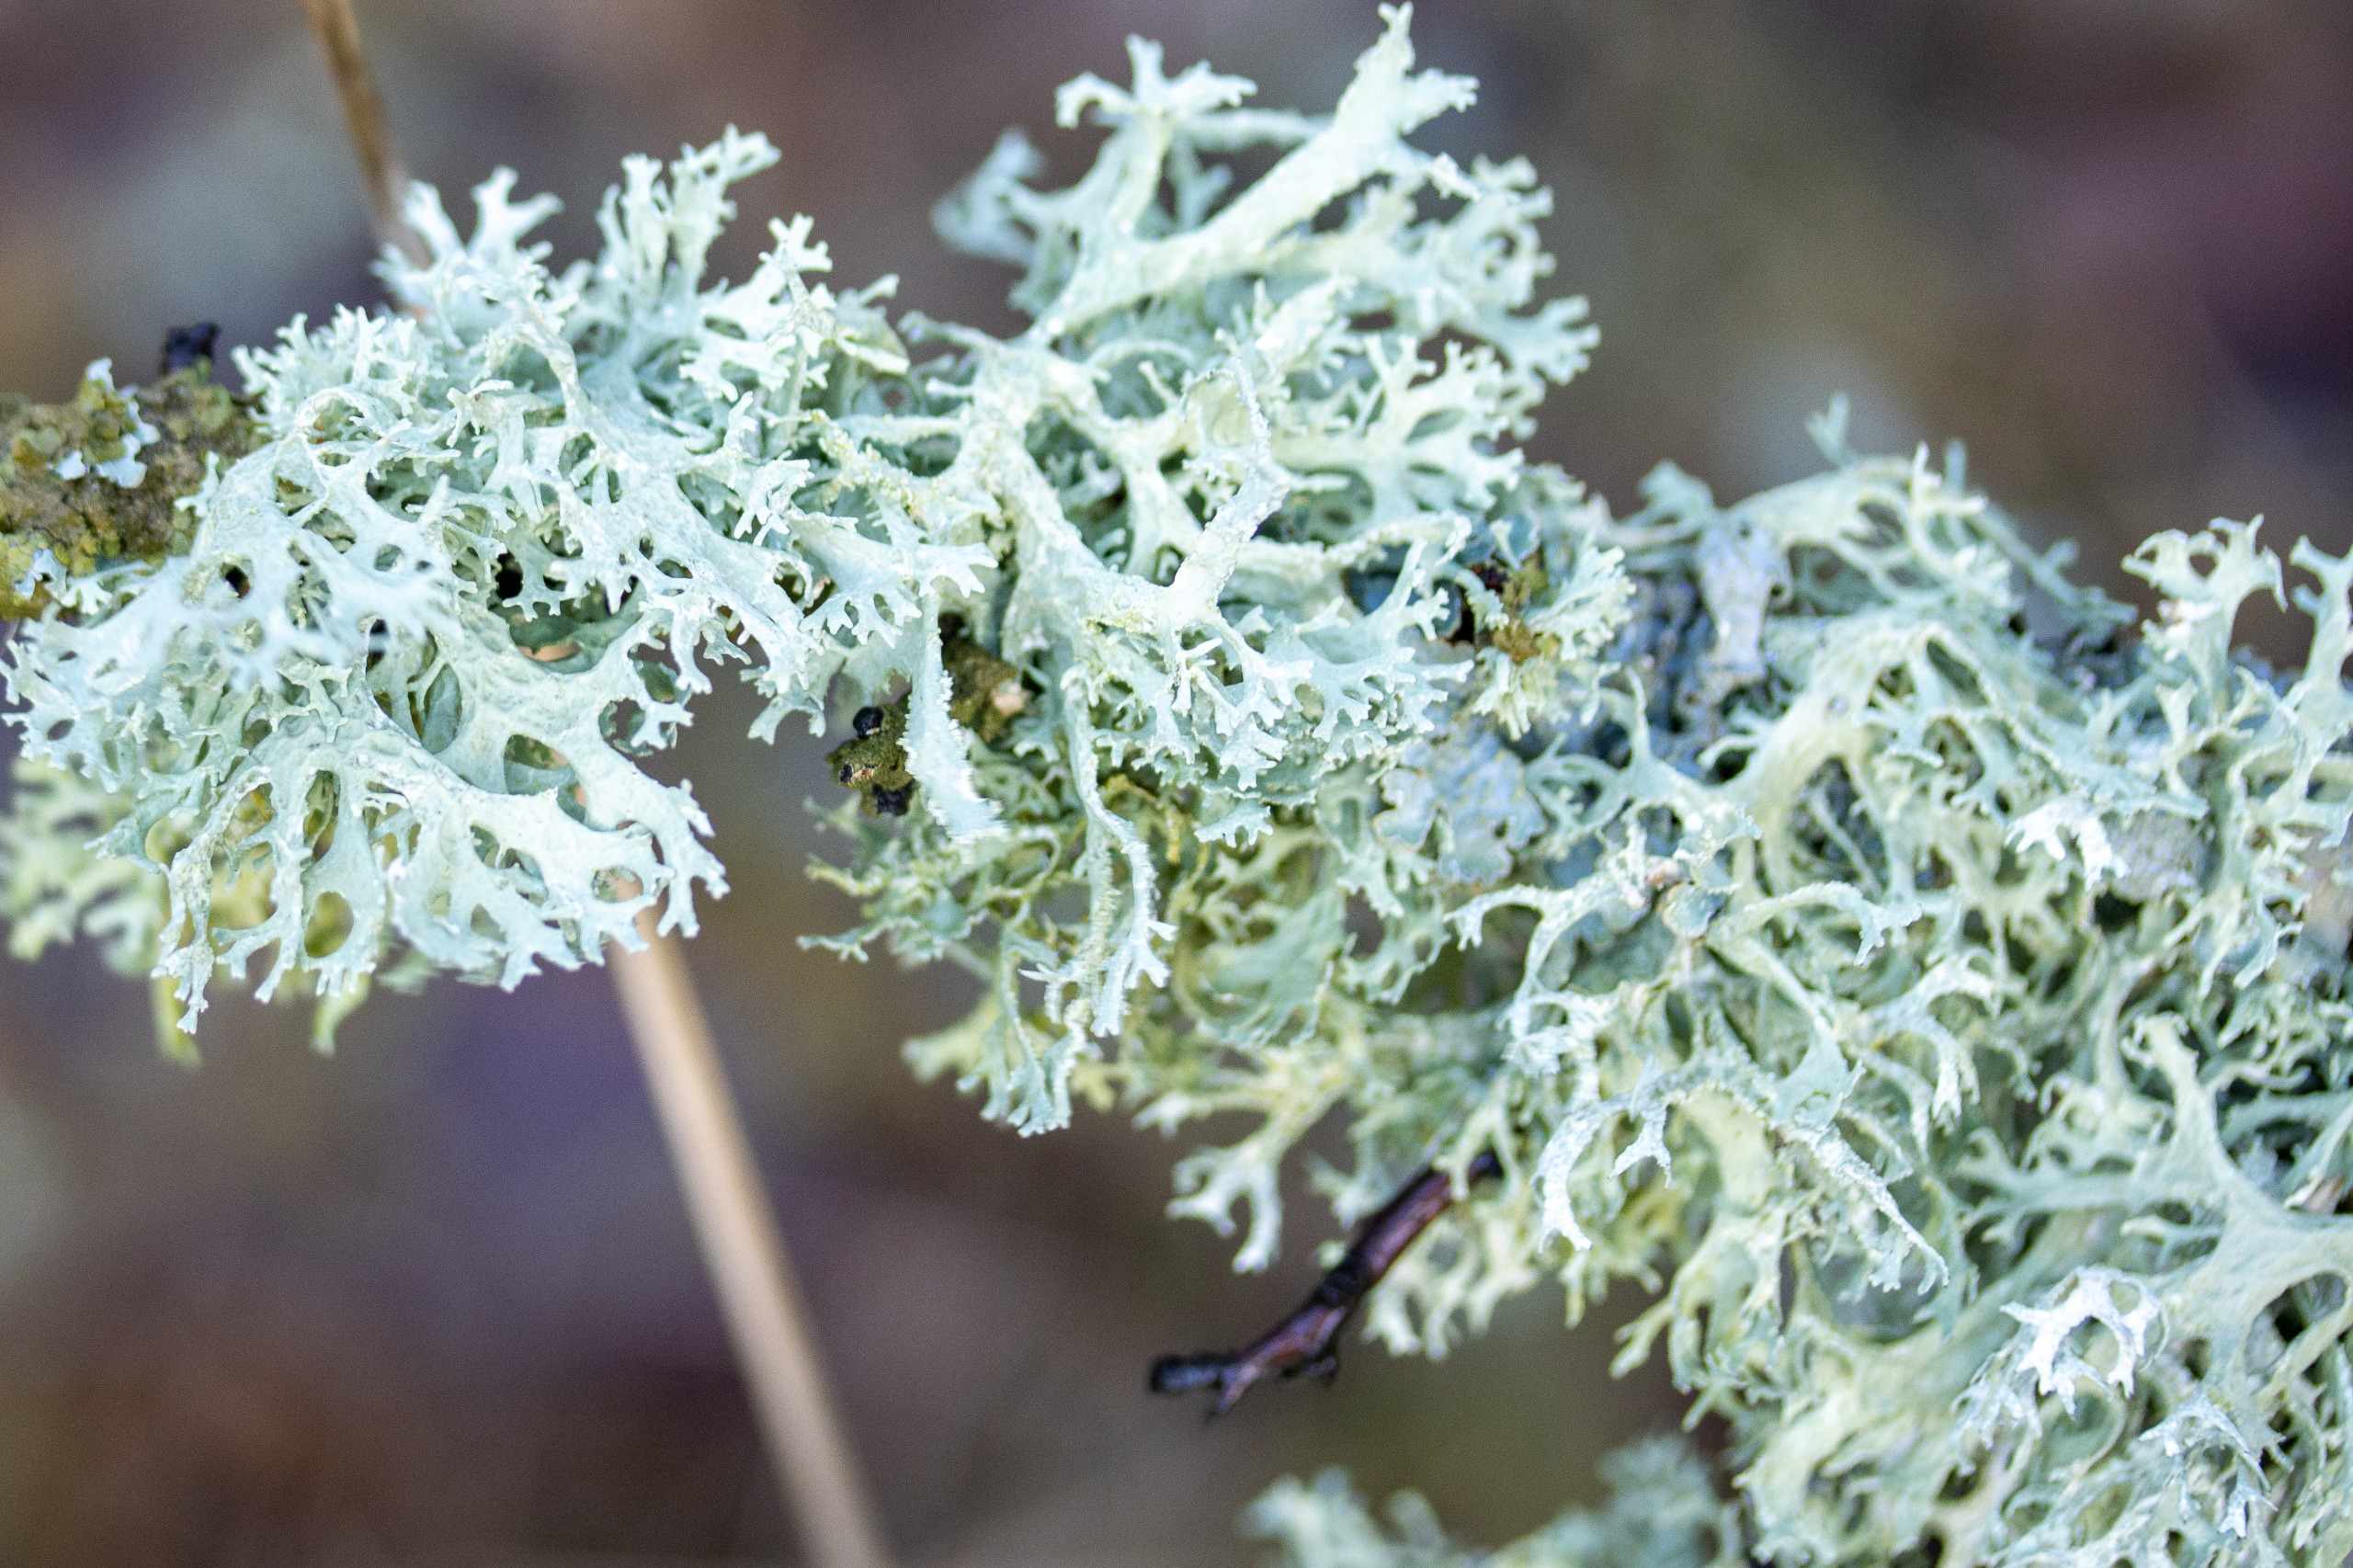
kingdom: Fungi
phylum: Ascomycota
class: Lecanoromycetes
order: Lecanorales
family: Parmeliaceae
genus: Evernia
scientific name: Evernia prunastri
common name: Almindelig slåenlav
